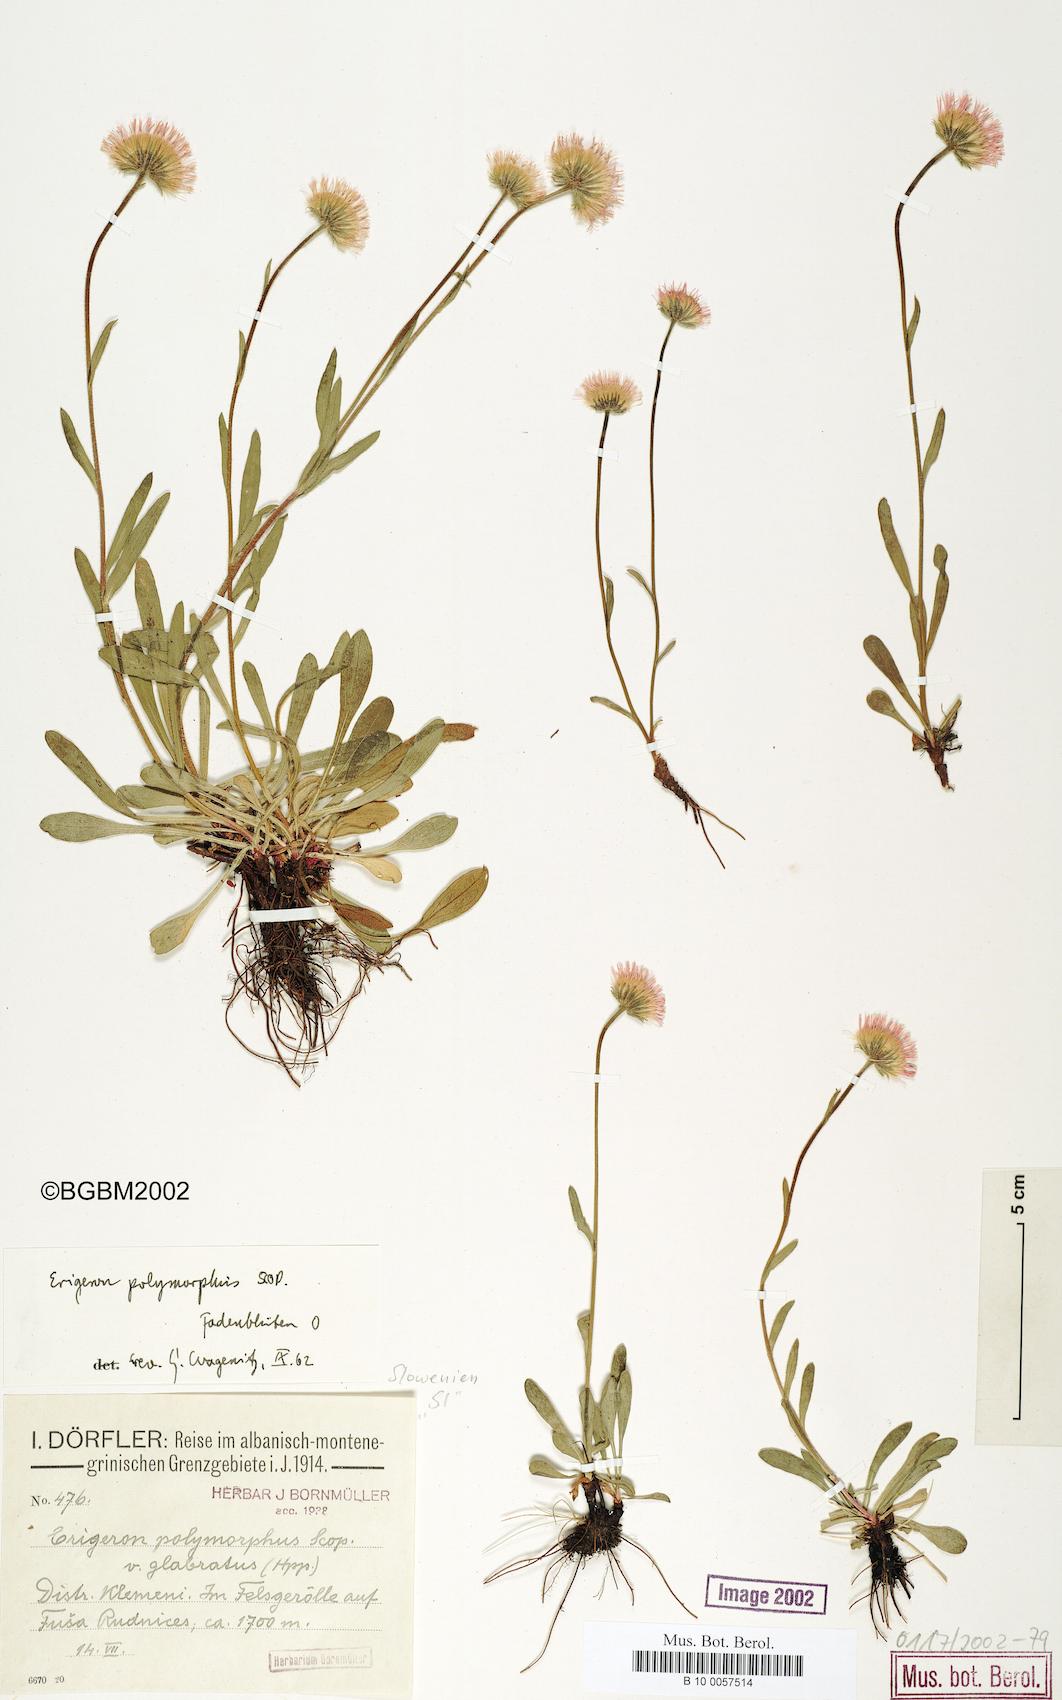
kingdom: Plantae
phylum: Tracheophyta
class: Magnoliopsida
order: Asterales
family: Asteraceae
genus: Erigeron
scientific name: Erigeron alpinus
